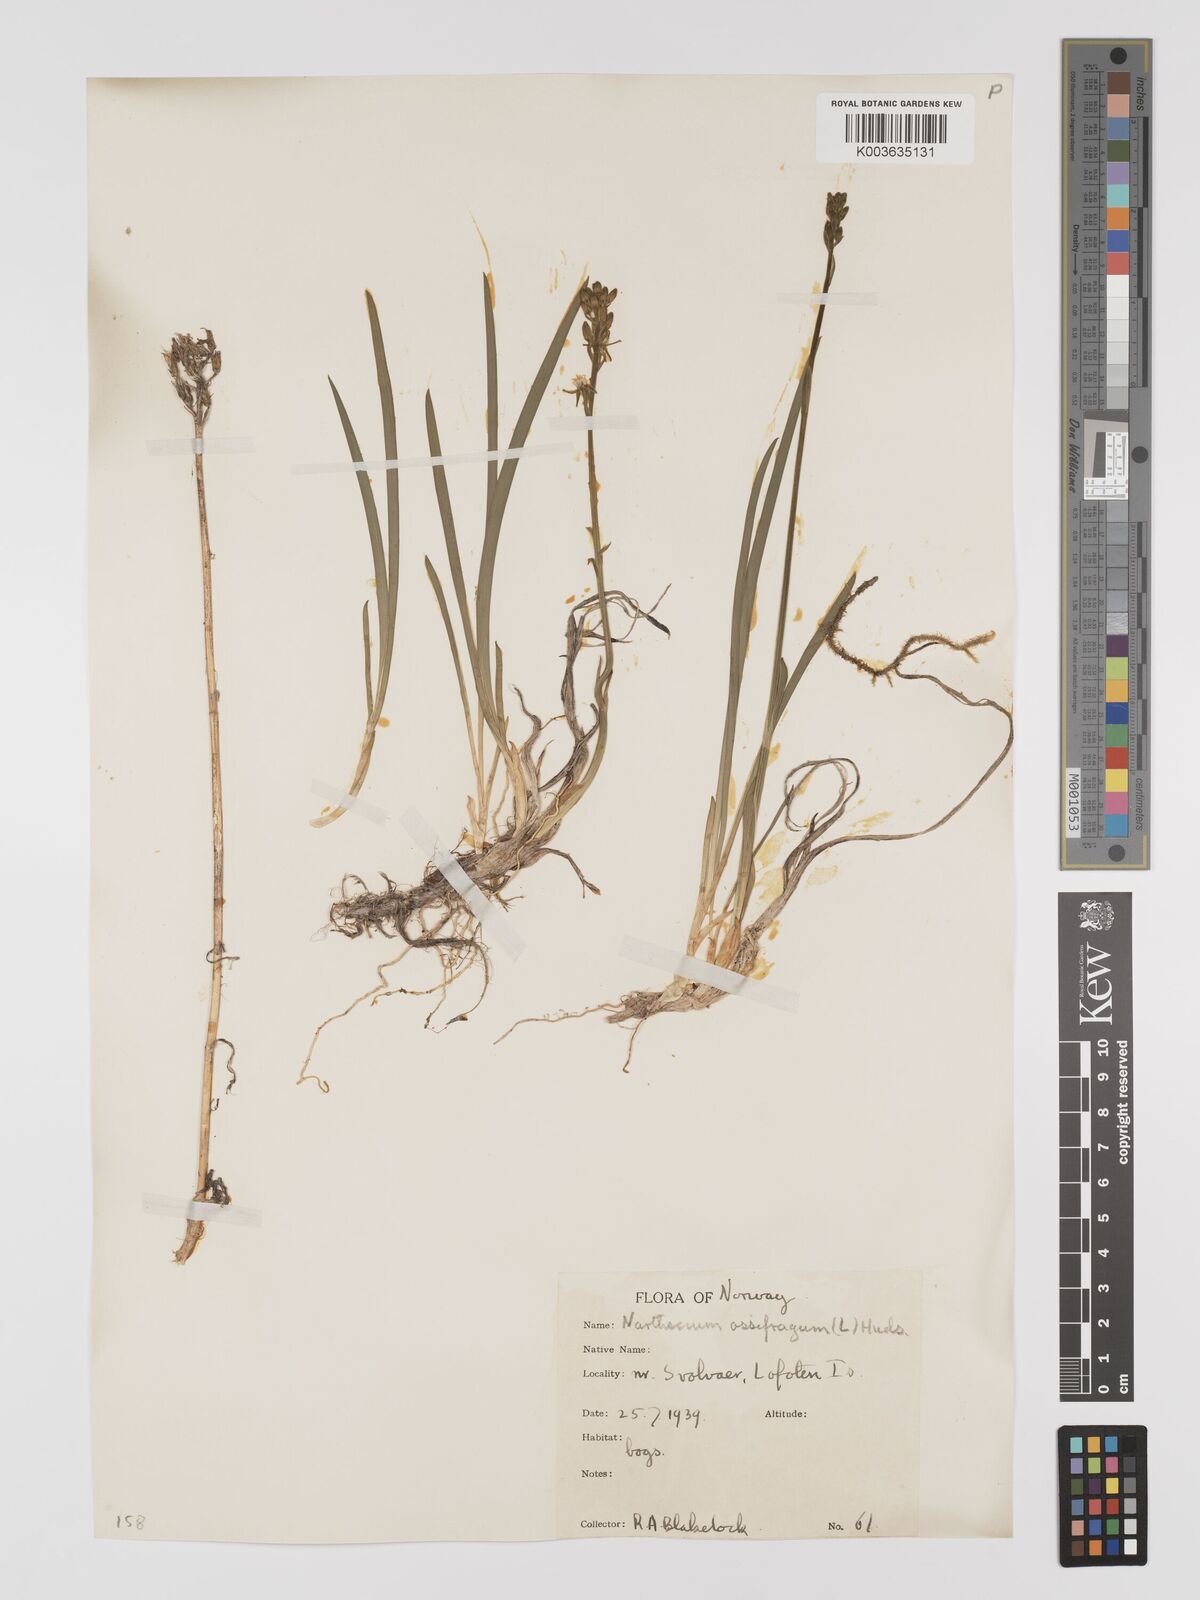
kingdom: Plantae
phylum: Tracheophyta
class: Liliopsida
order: Dioscoreales
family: Nartheciaceae
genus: Narthecium
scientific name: Narthecium ossifragum
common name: Bog asphodel
